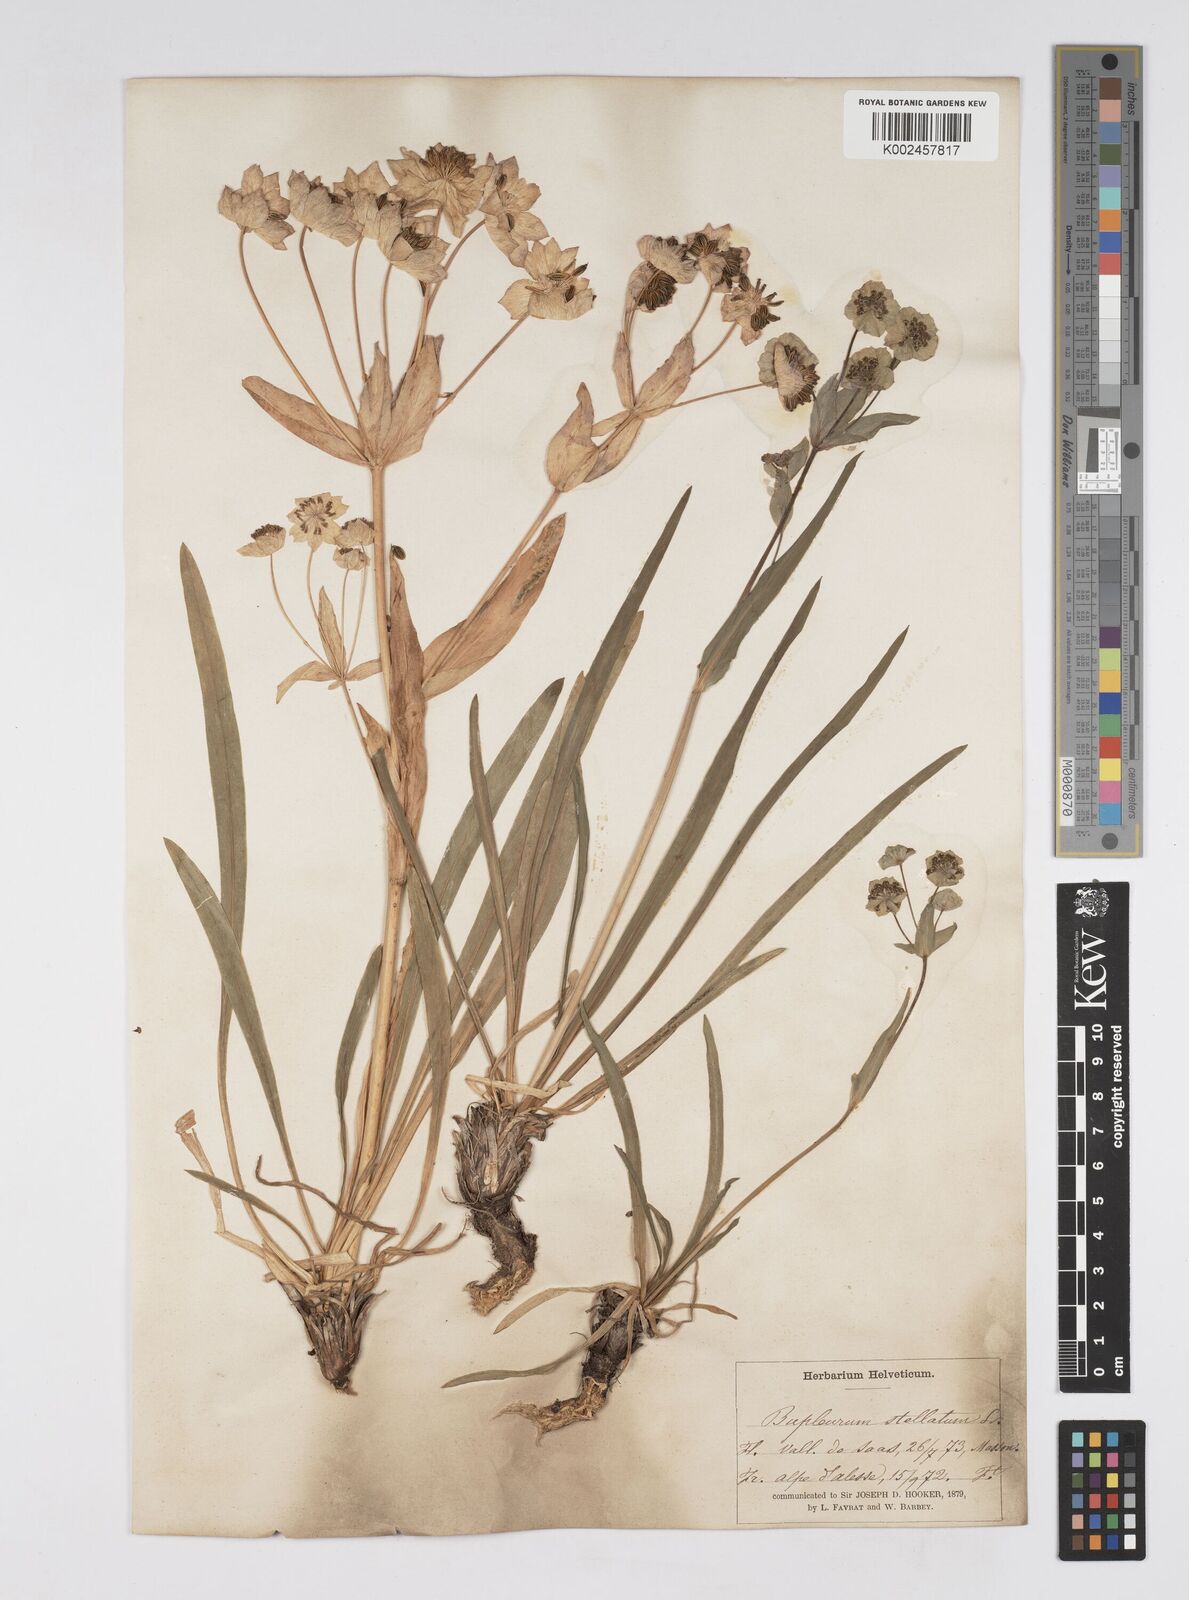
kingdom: Plantae
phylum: Tracheophyta
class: Magnoliopsida
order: Apiales
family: Apiaceae
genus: Bupleurum
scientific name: Bupleurum stellatum
